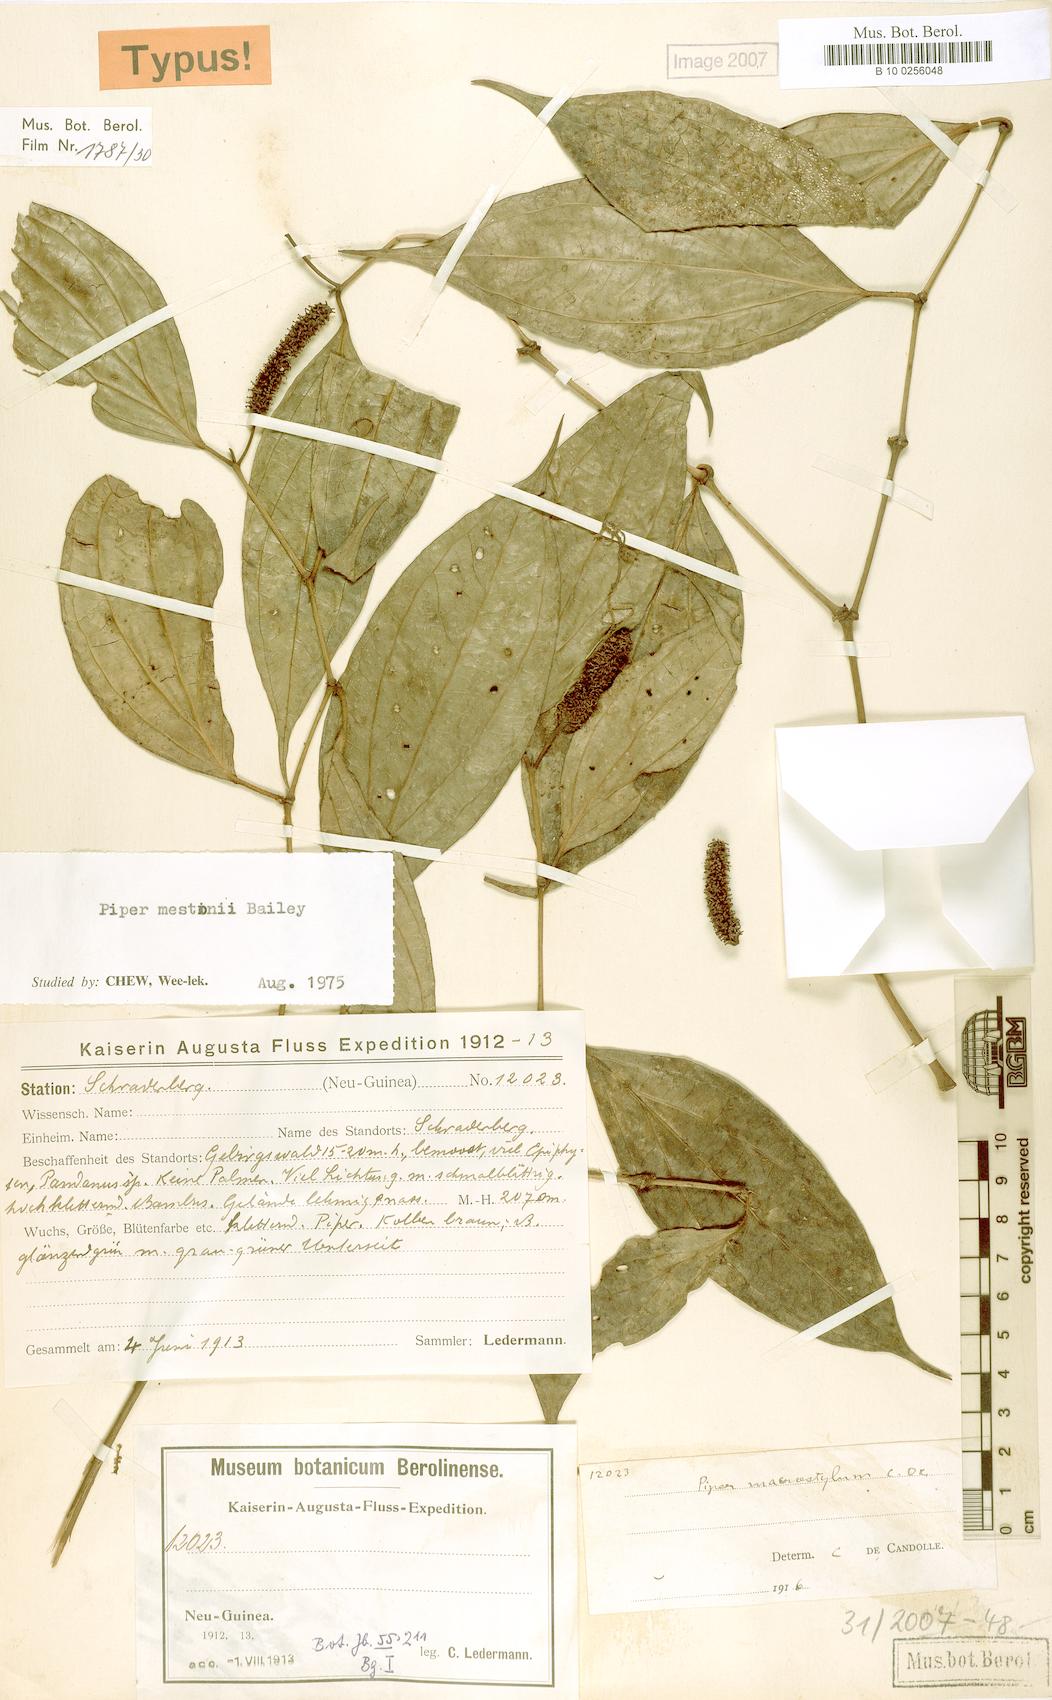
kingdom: Plantae
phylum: Tracheophyta
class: Magnoliopsida
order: Piperales
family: Piperaceae
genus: Piper
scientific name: Piper mestonii
